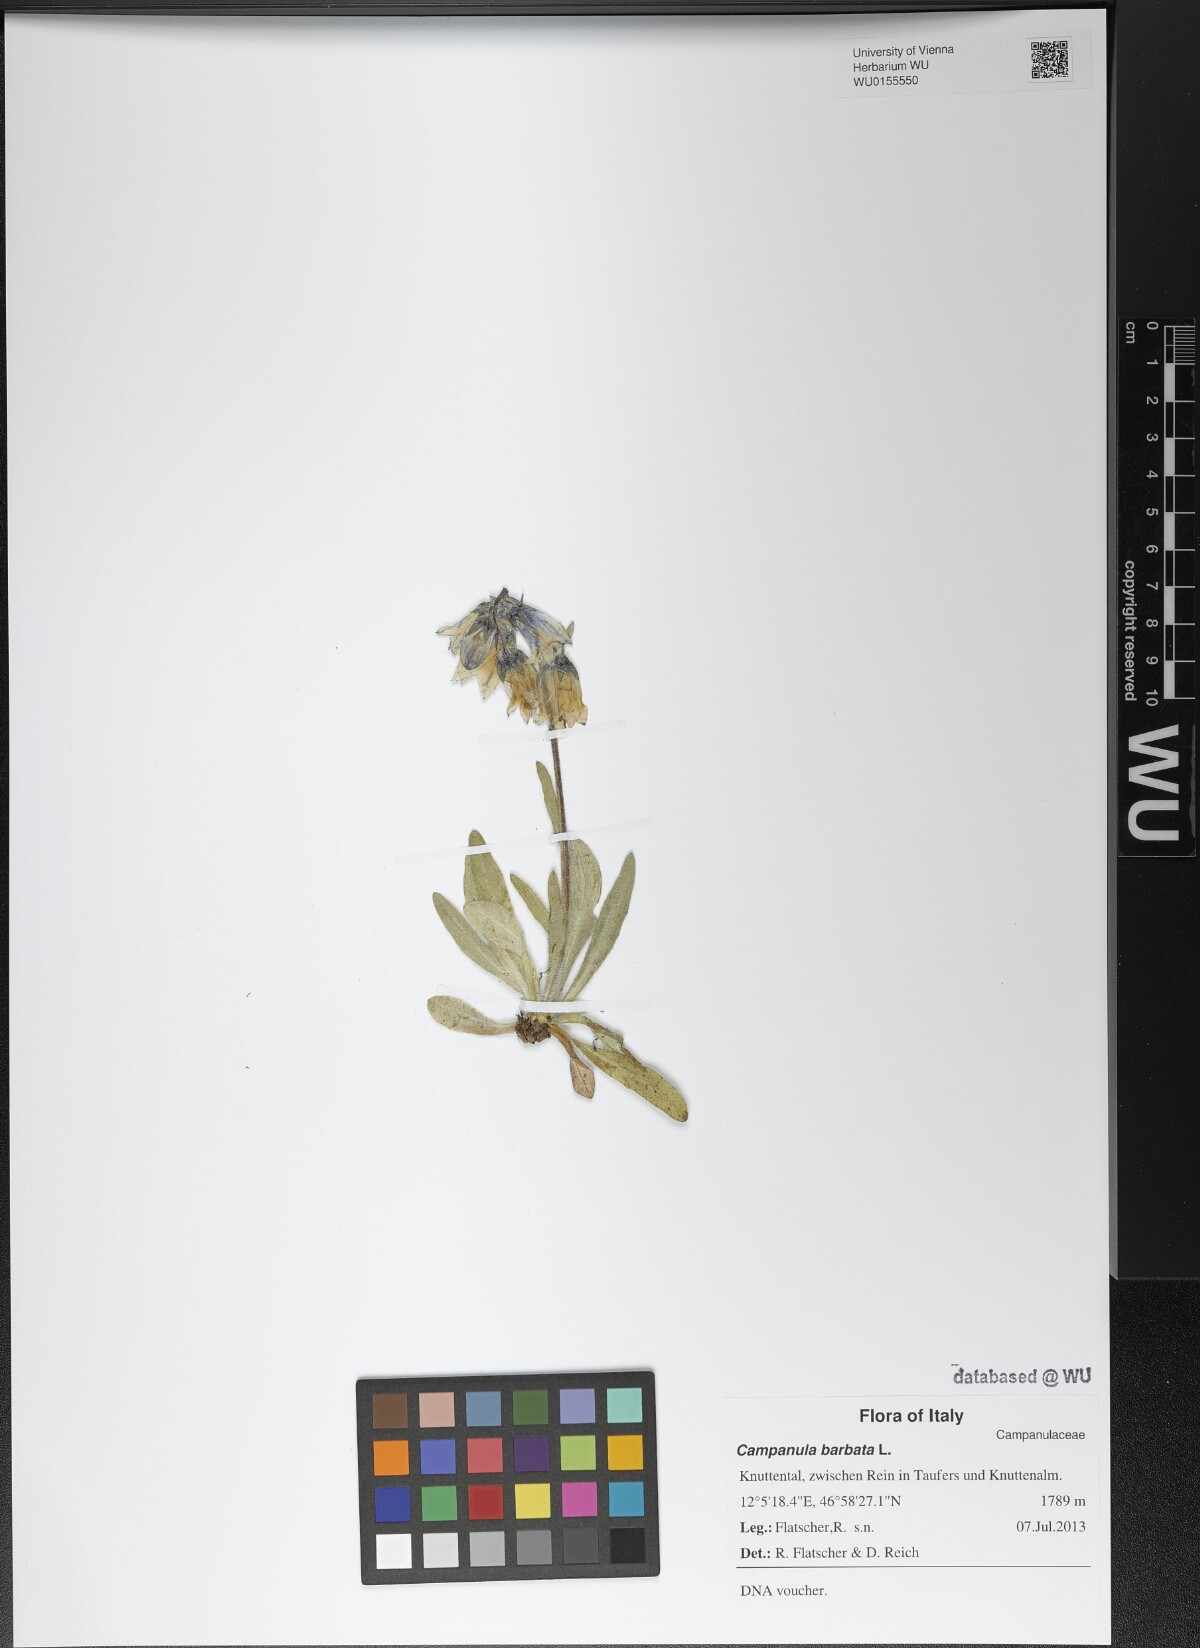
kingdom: Plantae
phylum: Tracheophyta
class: Magnoliopsida
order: Asterales
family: Campanulaceae
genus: Campanula
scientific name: Campanula barbata
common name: Bearded bellflower
